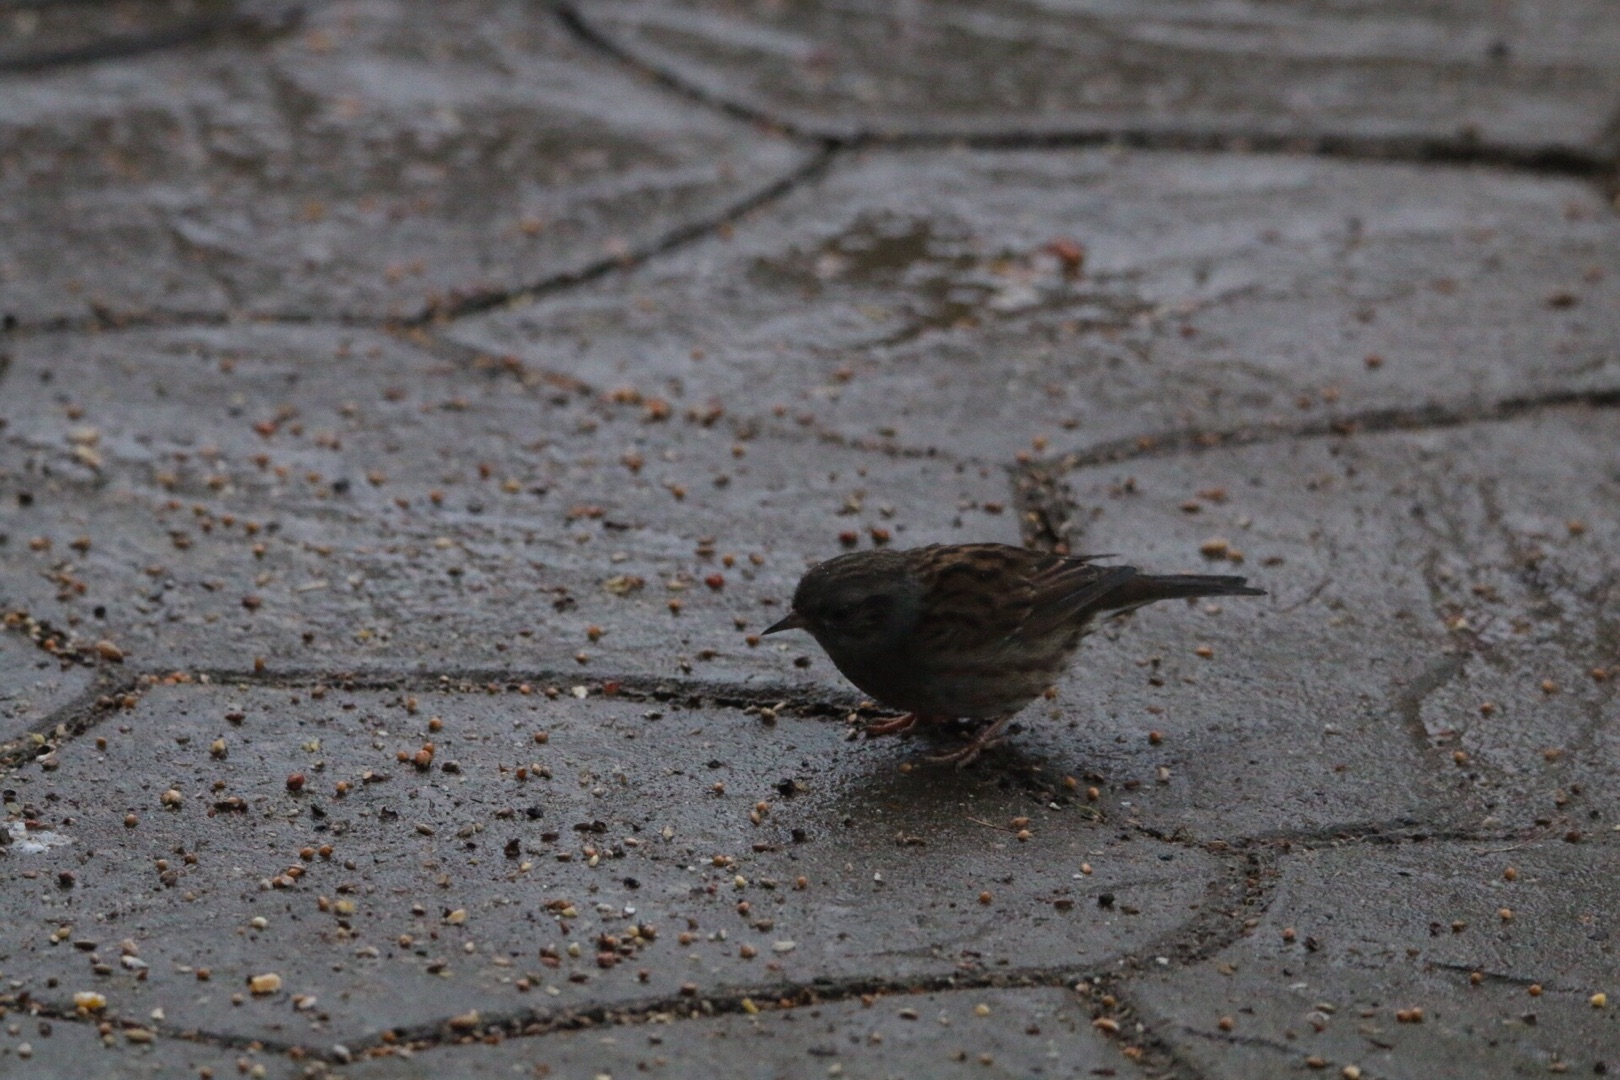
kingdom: Animalia
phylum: Chordata
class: Aves
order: Passeriformes
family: Prunellidae
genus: Prunella
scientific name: Prunella modularis
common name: Jernspurv
